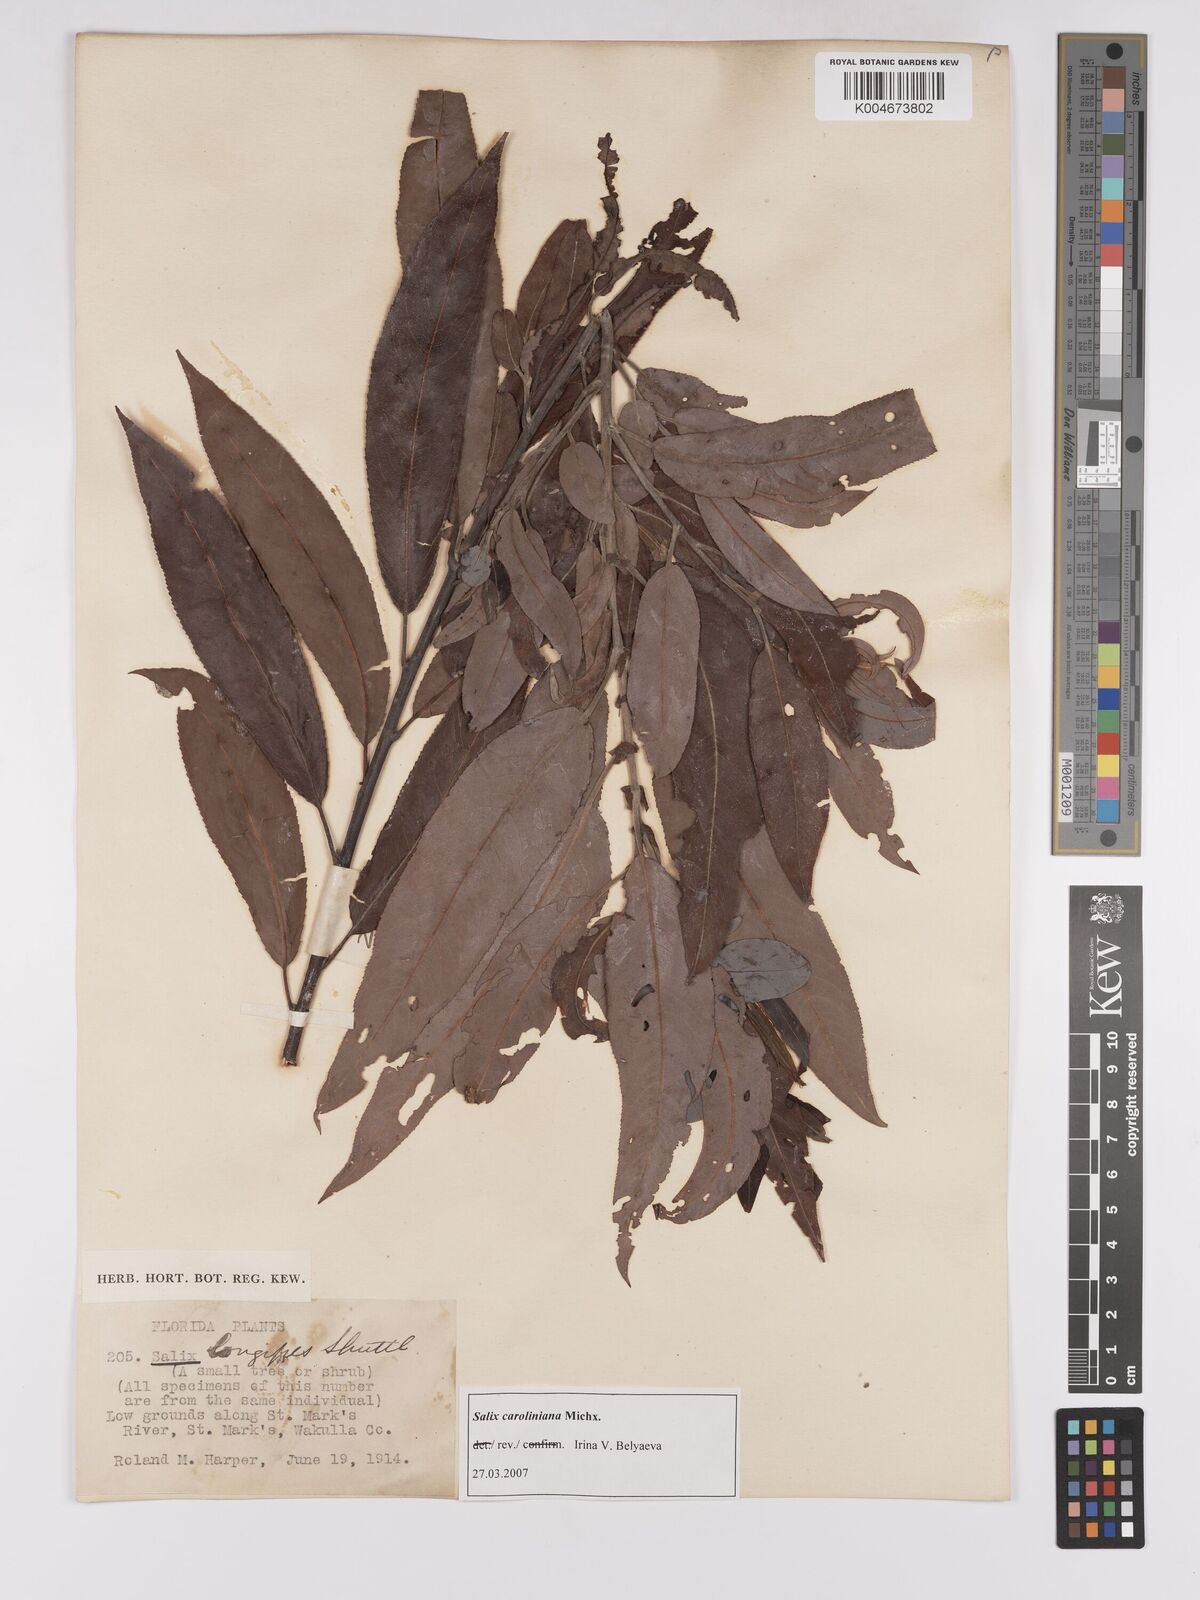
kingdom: Plantae
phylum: Tracheophyta
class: Magnoliopsida
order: Malpighiales
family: Salicaceae
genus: Salix
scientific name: Salix caroliniana
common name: Carolina willow
